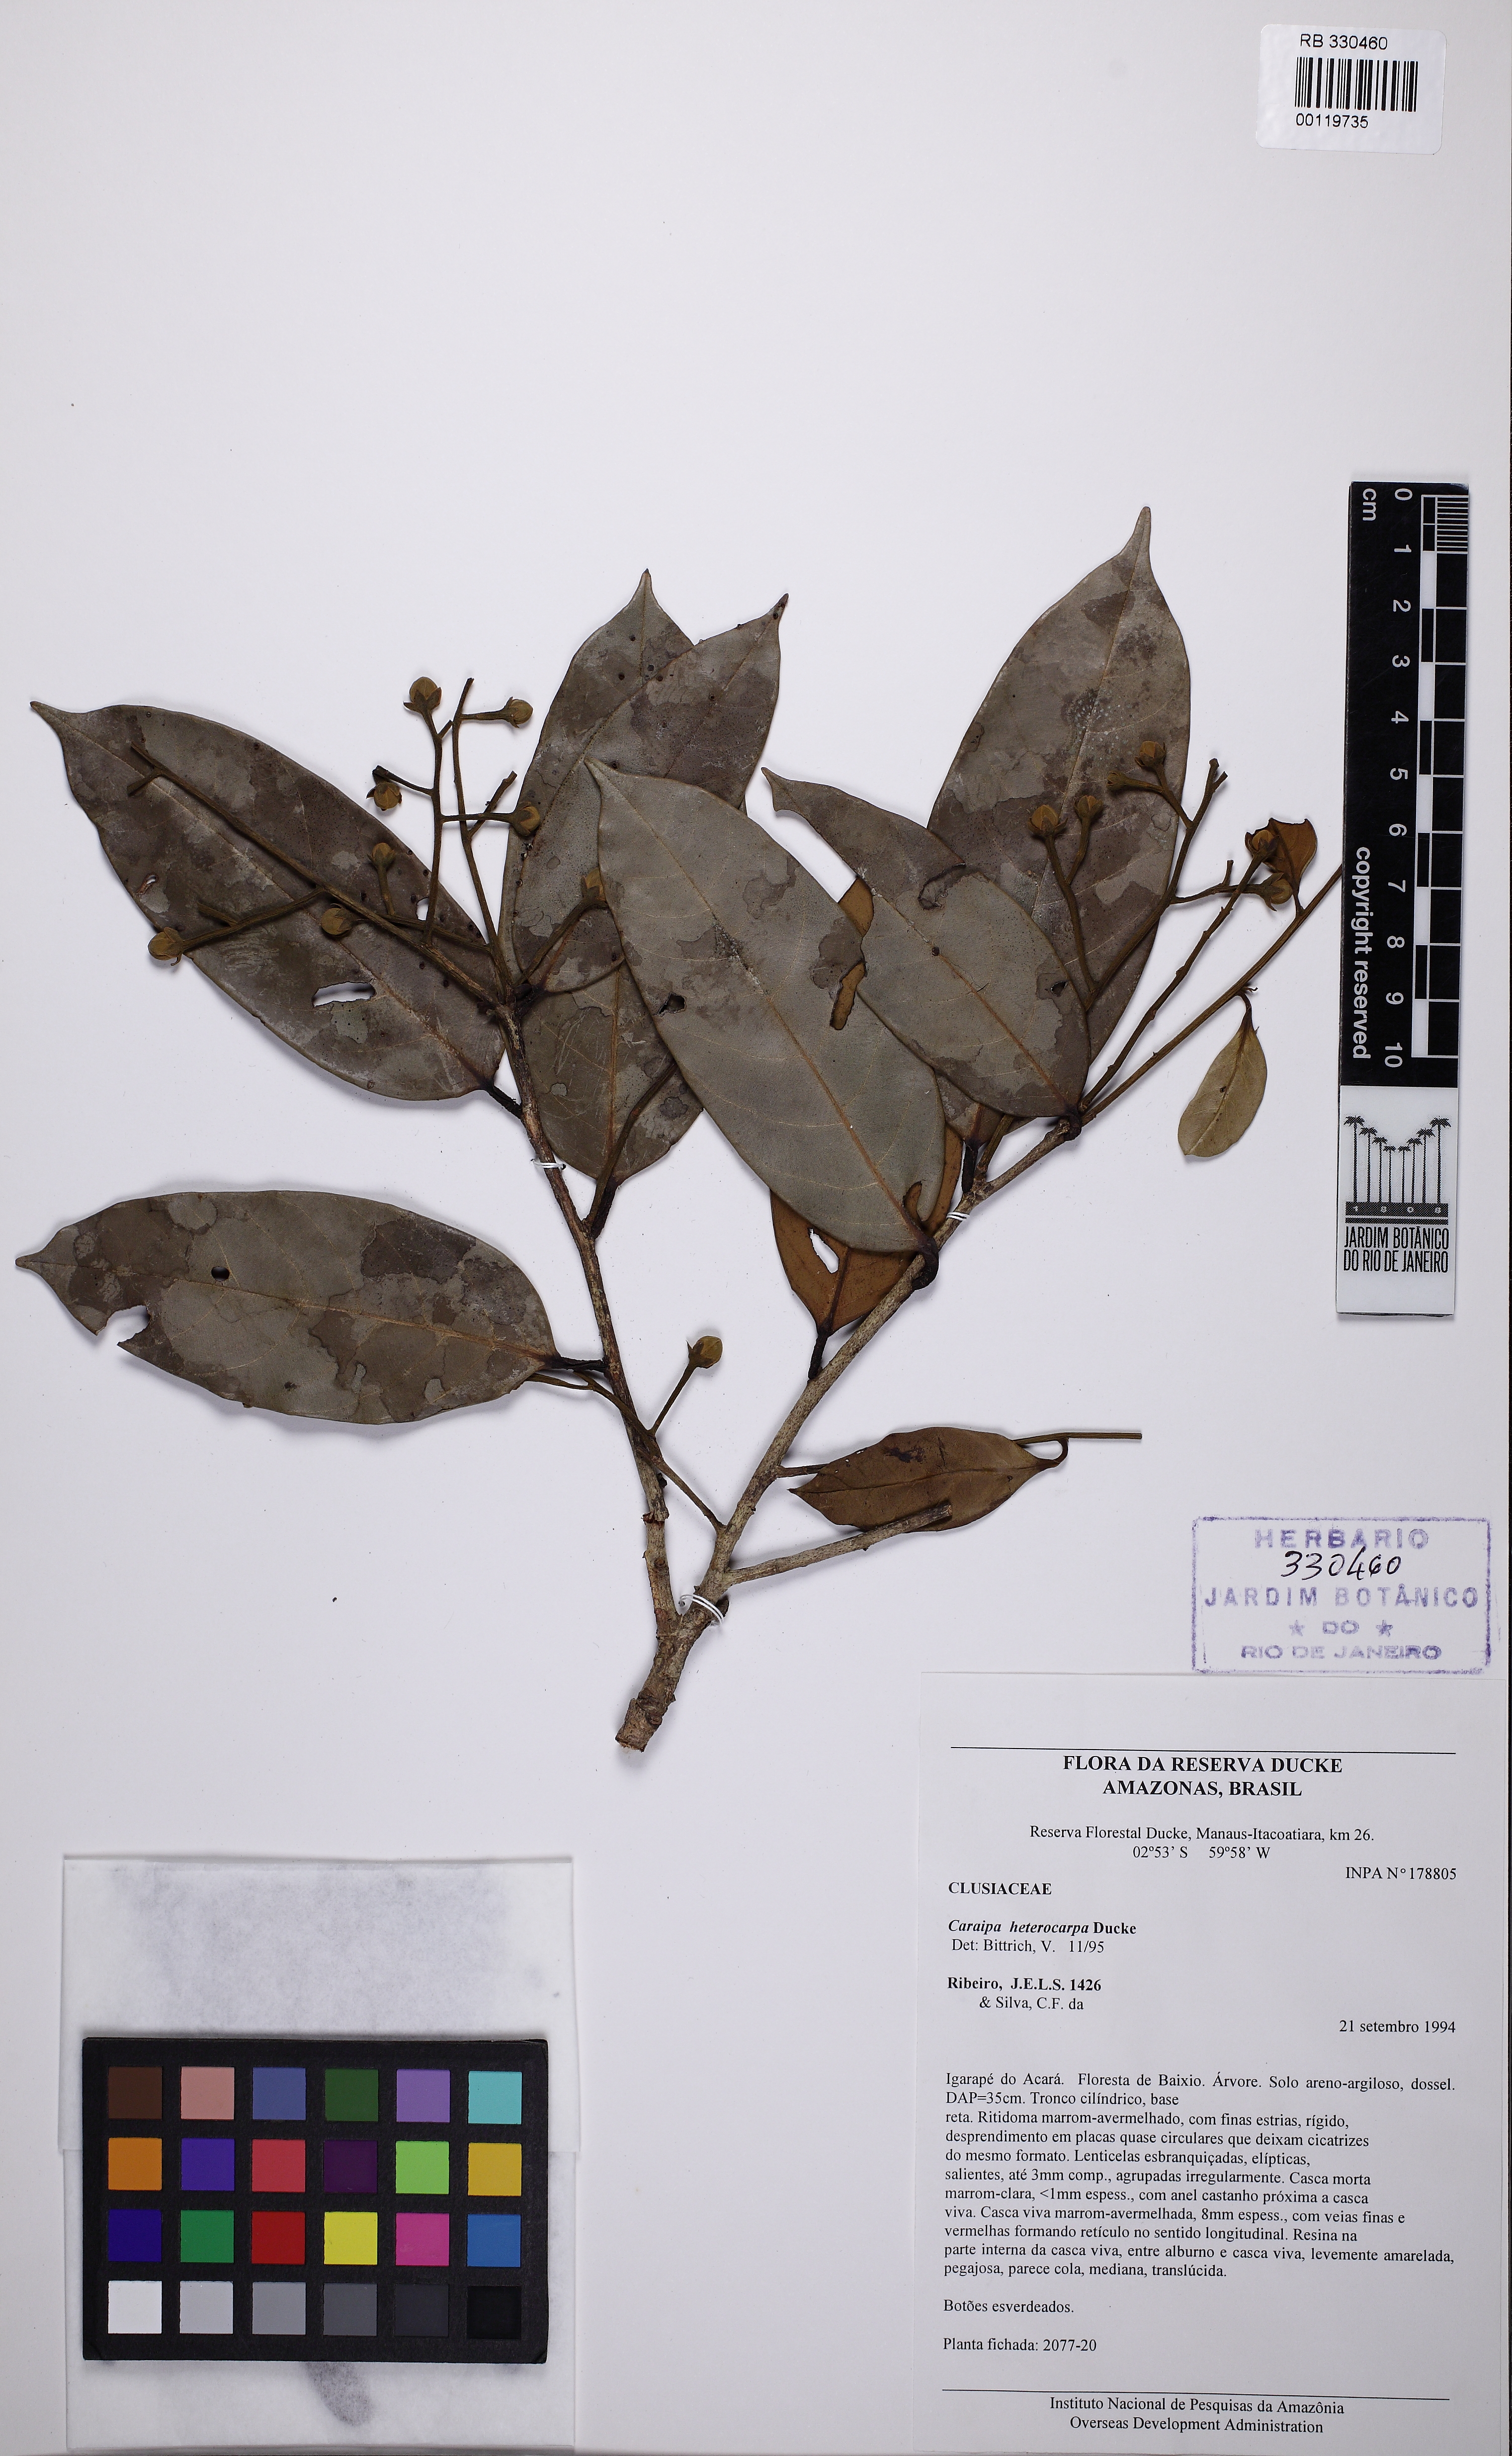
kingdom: Plantae
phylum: Tracheophyta
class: Magnoliopsida
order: Malpighiales
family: Calophyllaceae
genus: Caraipa
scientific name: Caraipa heterocarpa
